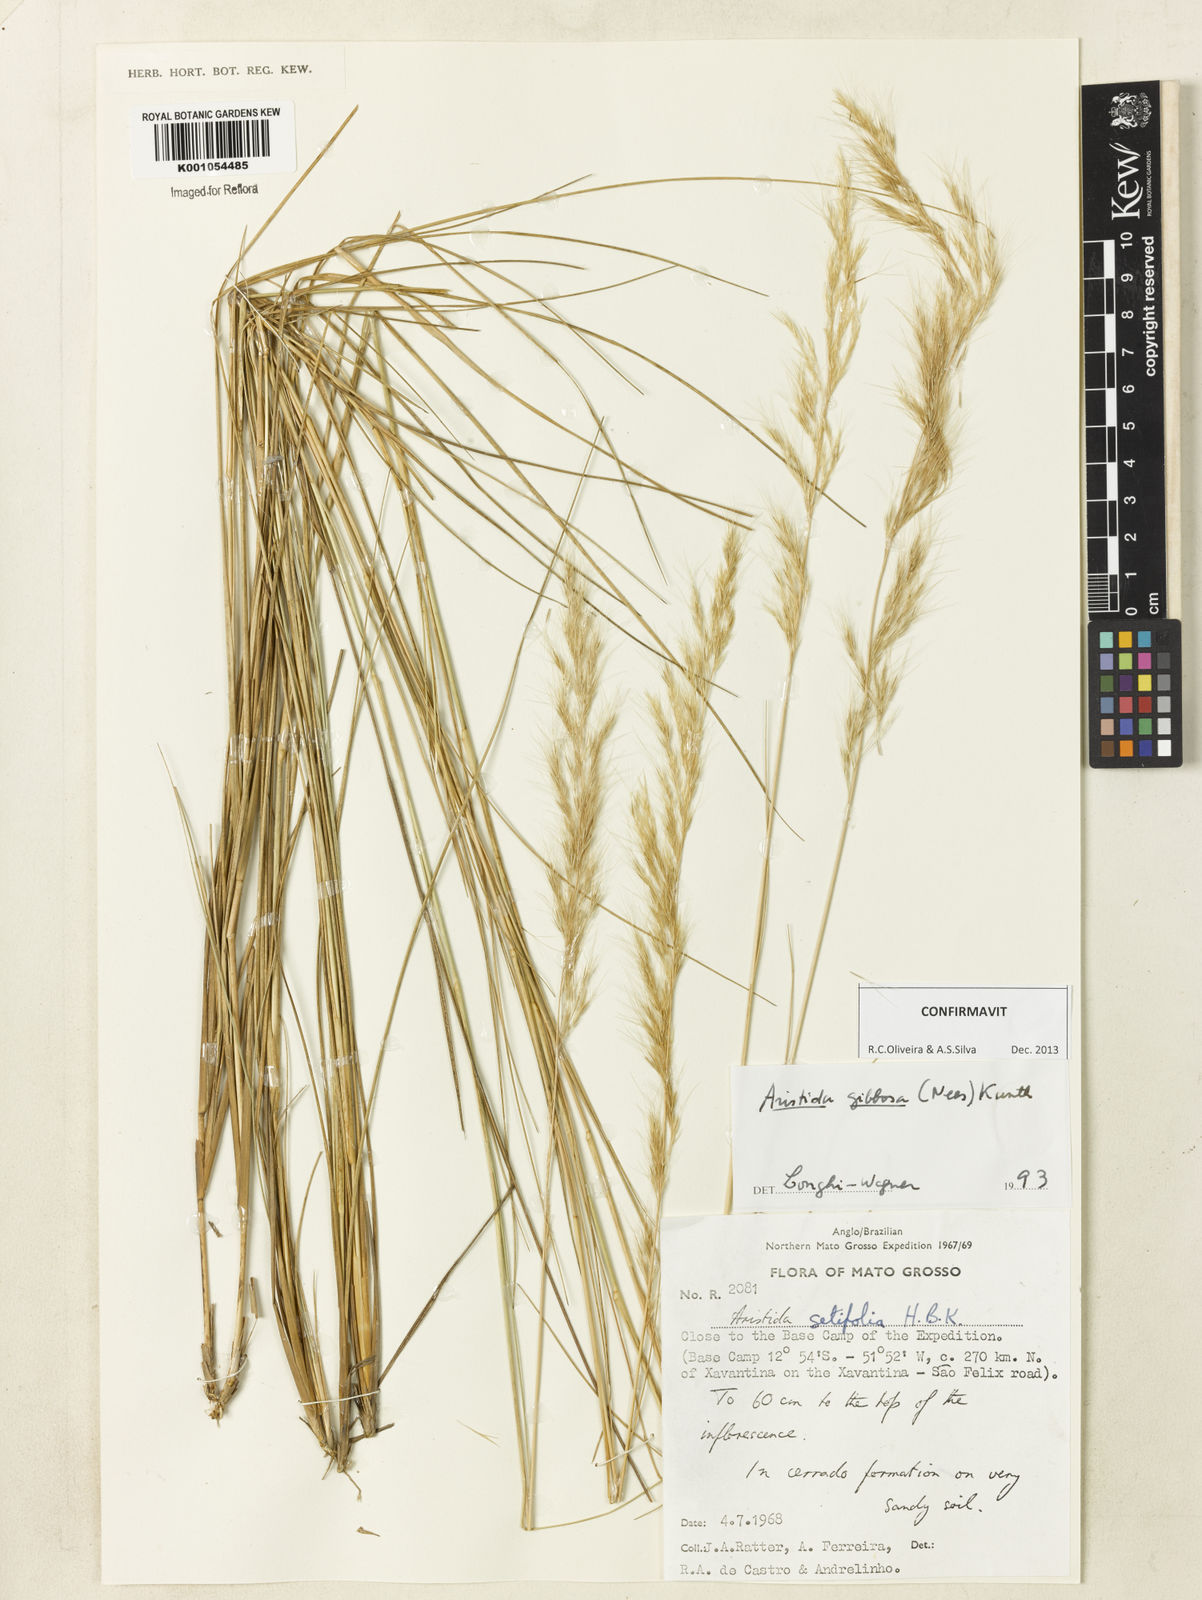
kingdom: Plantae
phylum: Tracheophyta
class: Liliopsida
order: Poales
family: Poaceae
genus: Aristida
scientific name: Aristida gibbosa
